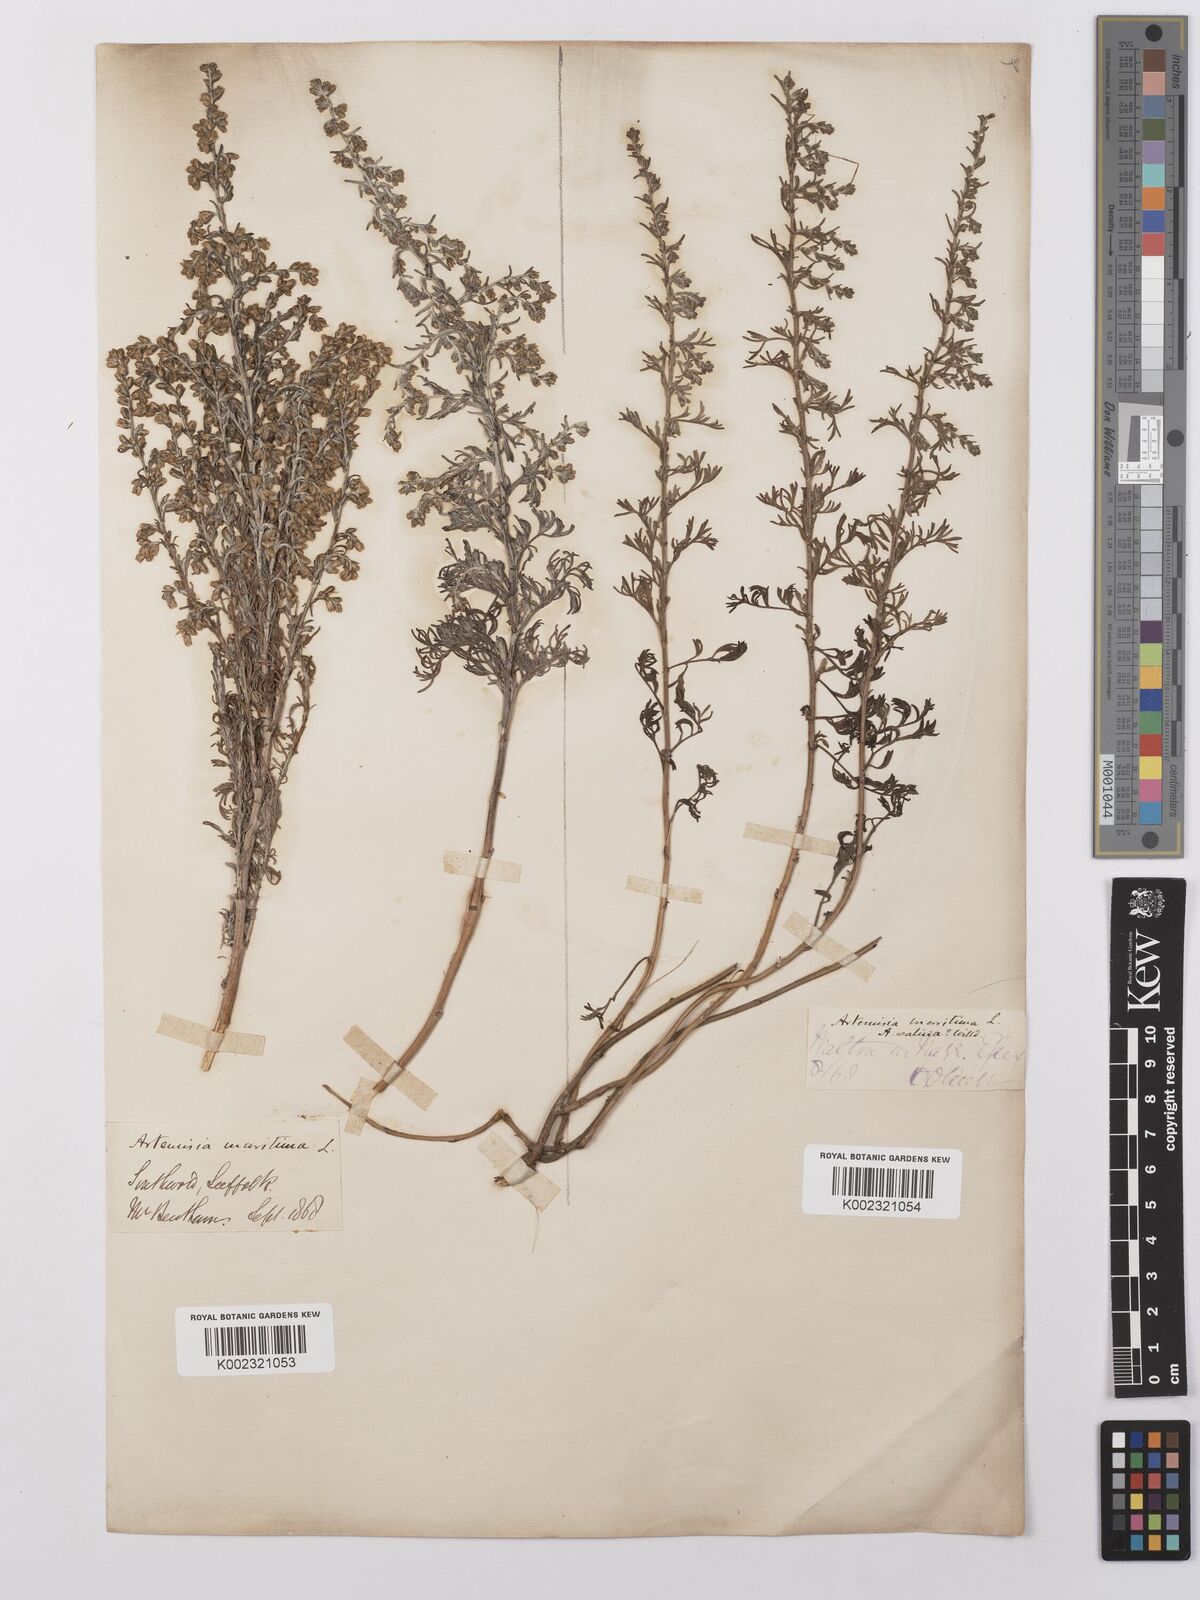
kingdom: Plantae
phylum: Tracheophyta
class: Magnoliopsida
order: Asterales
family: Asteraceae
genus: Artemisia
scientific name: Artemisia maritima
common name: Wormseed
